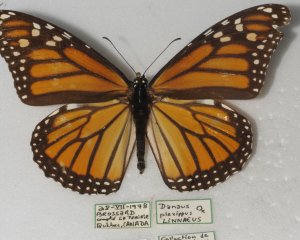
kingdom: Animalia
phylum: Arthropoda
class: Insecta
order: Lepidoptera
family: Nymphalidae
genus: Danaus
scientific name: Danaus plexippus
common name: Monarch
